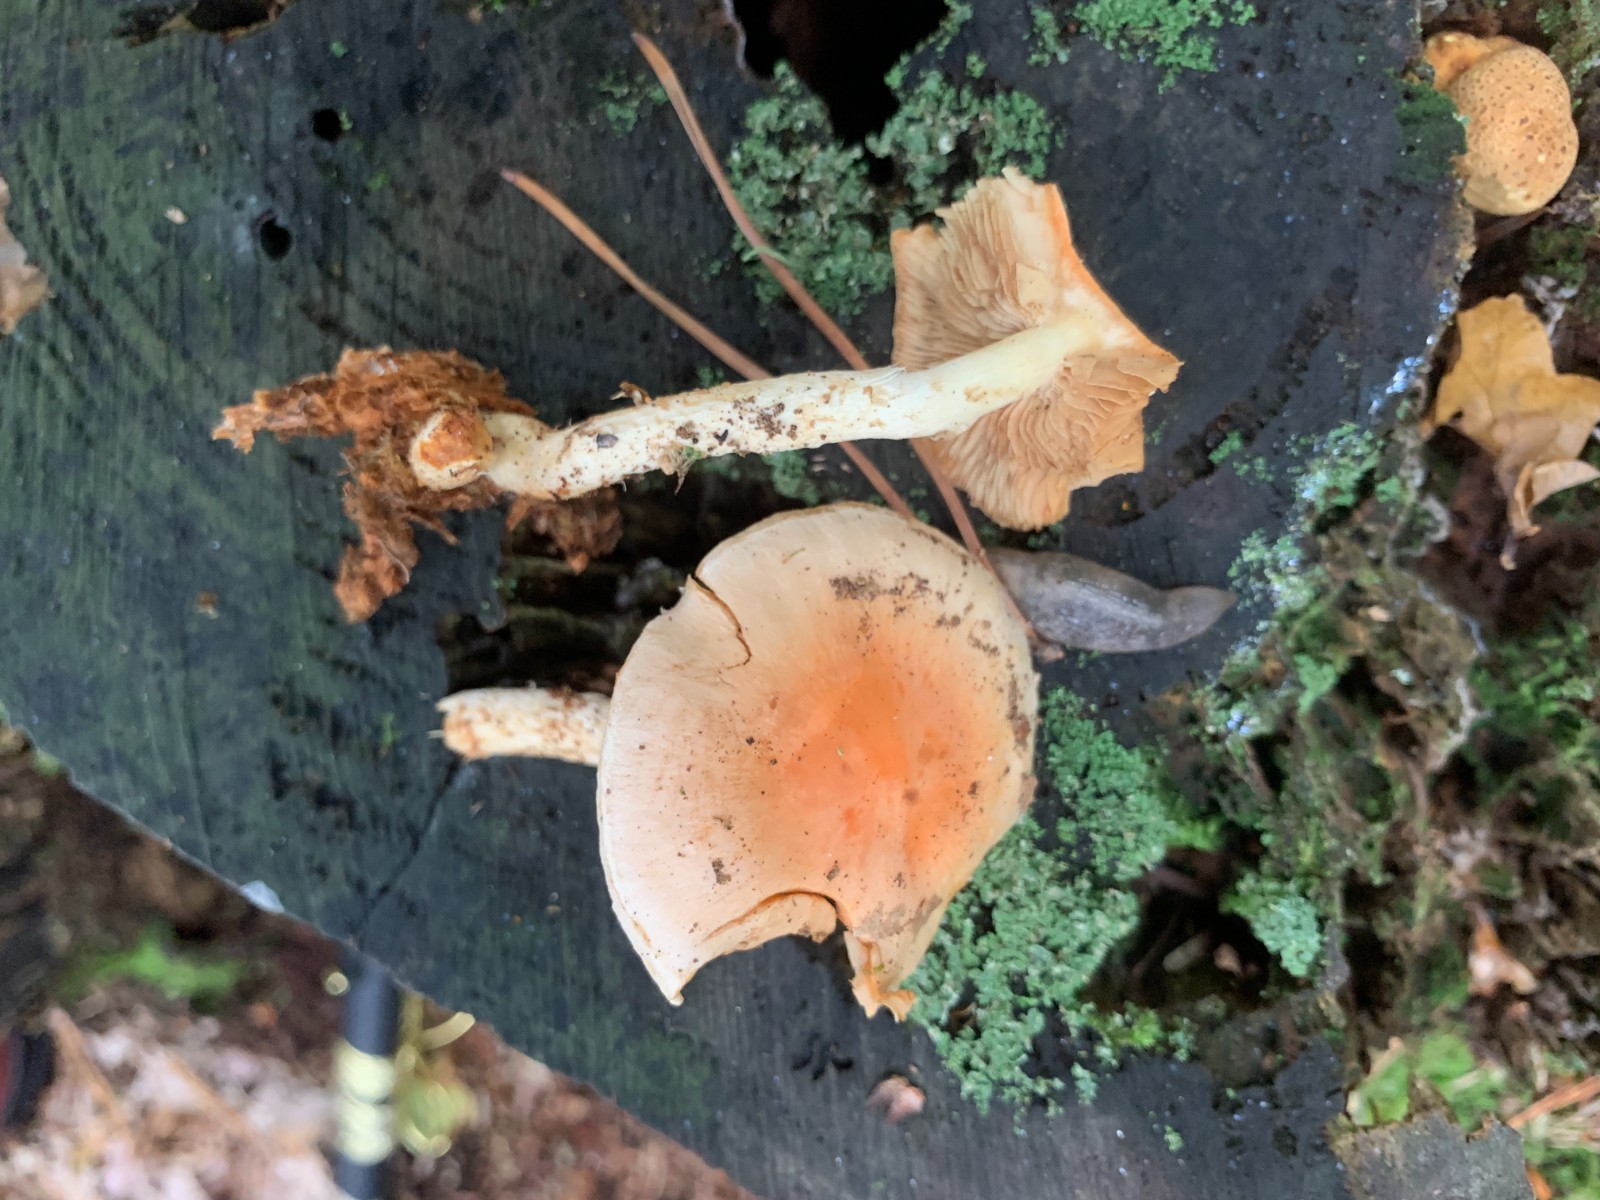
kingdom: Fungi
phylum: Basidiomycota
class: Agaricomycetes
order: Agaricales
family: Strophariaceae
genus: Pyrrhulomyces
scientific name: Pyrrhulomyces astragalinus
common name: safran-skælhat
